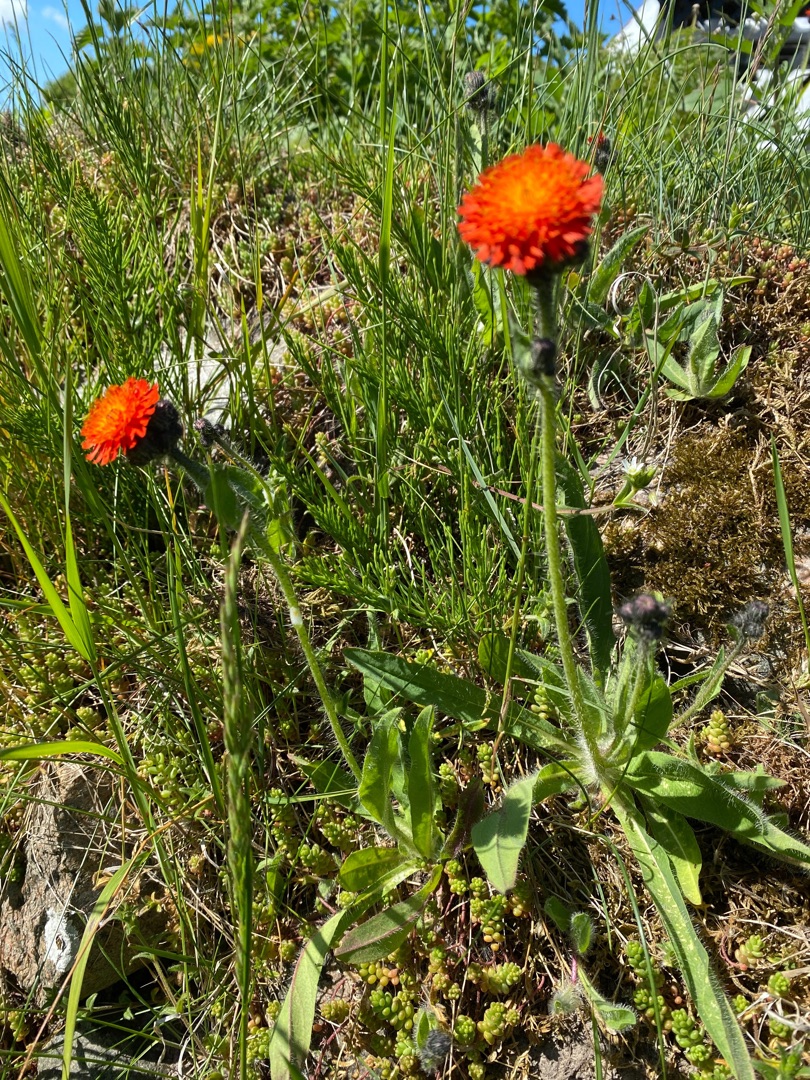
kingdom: Plantae
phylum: Tracheophyta
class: Magnoliopsida
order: Asterales
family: Asteraceae
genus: Pilosella
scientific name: Pilosella aurantiaca
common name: Pomerans-høgeurt
